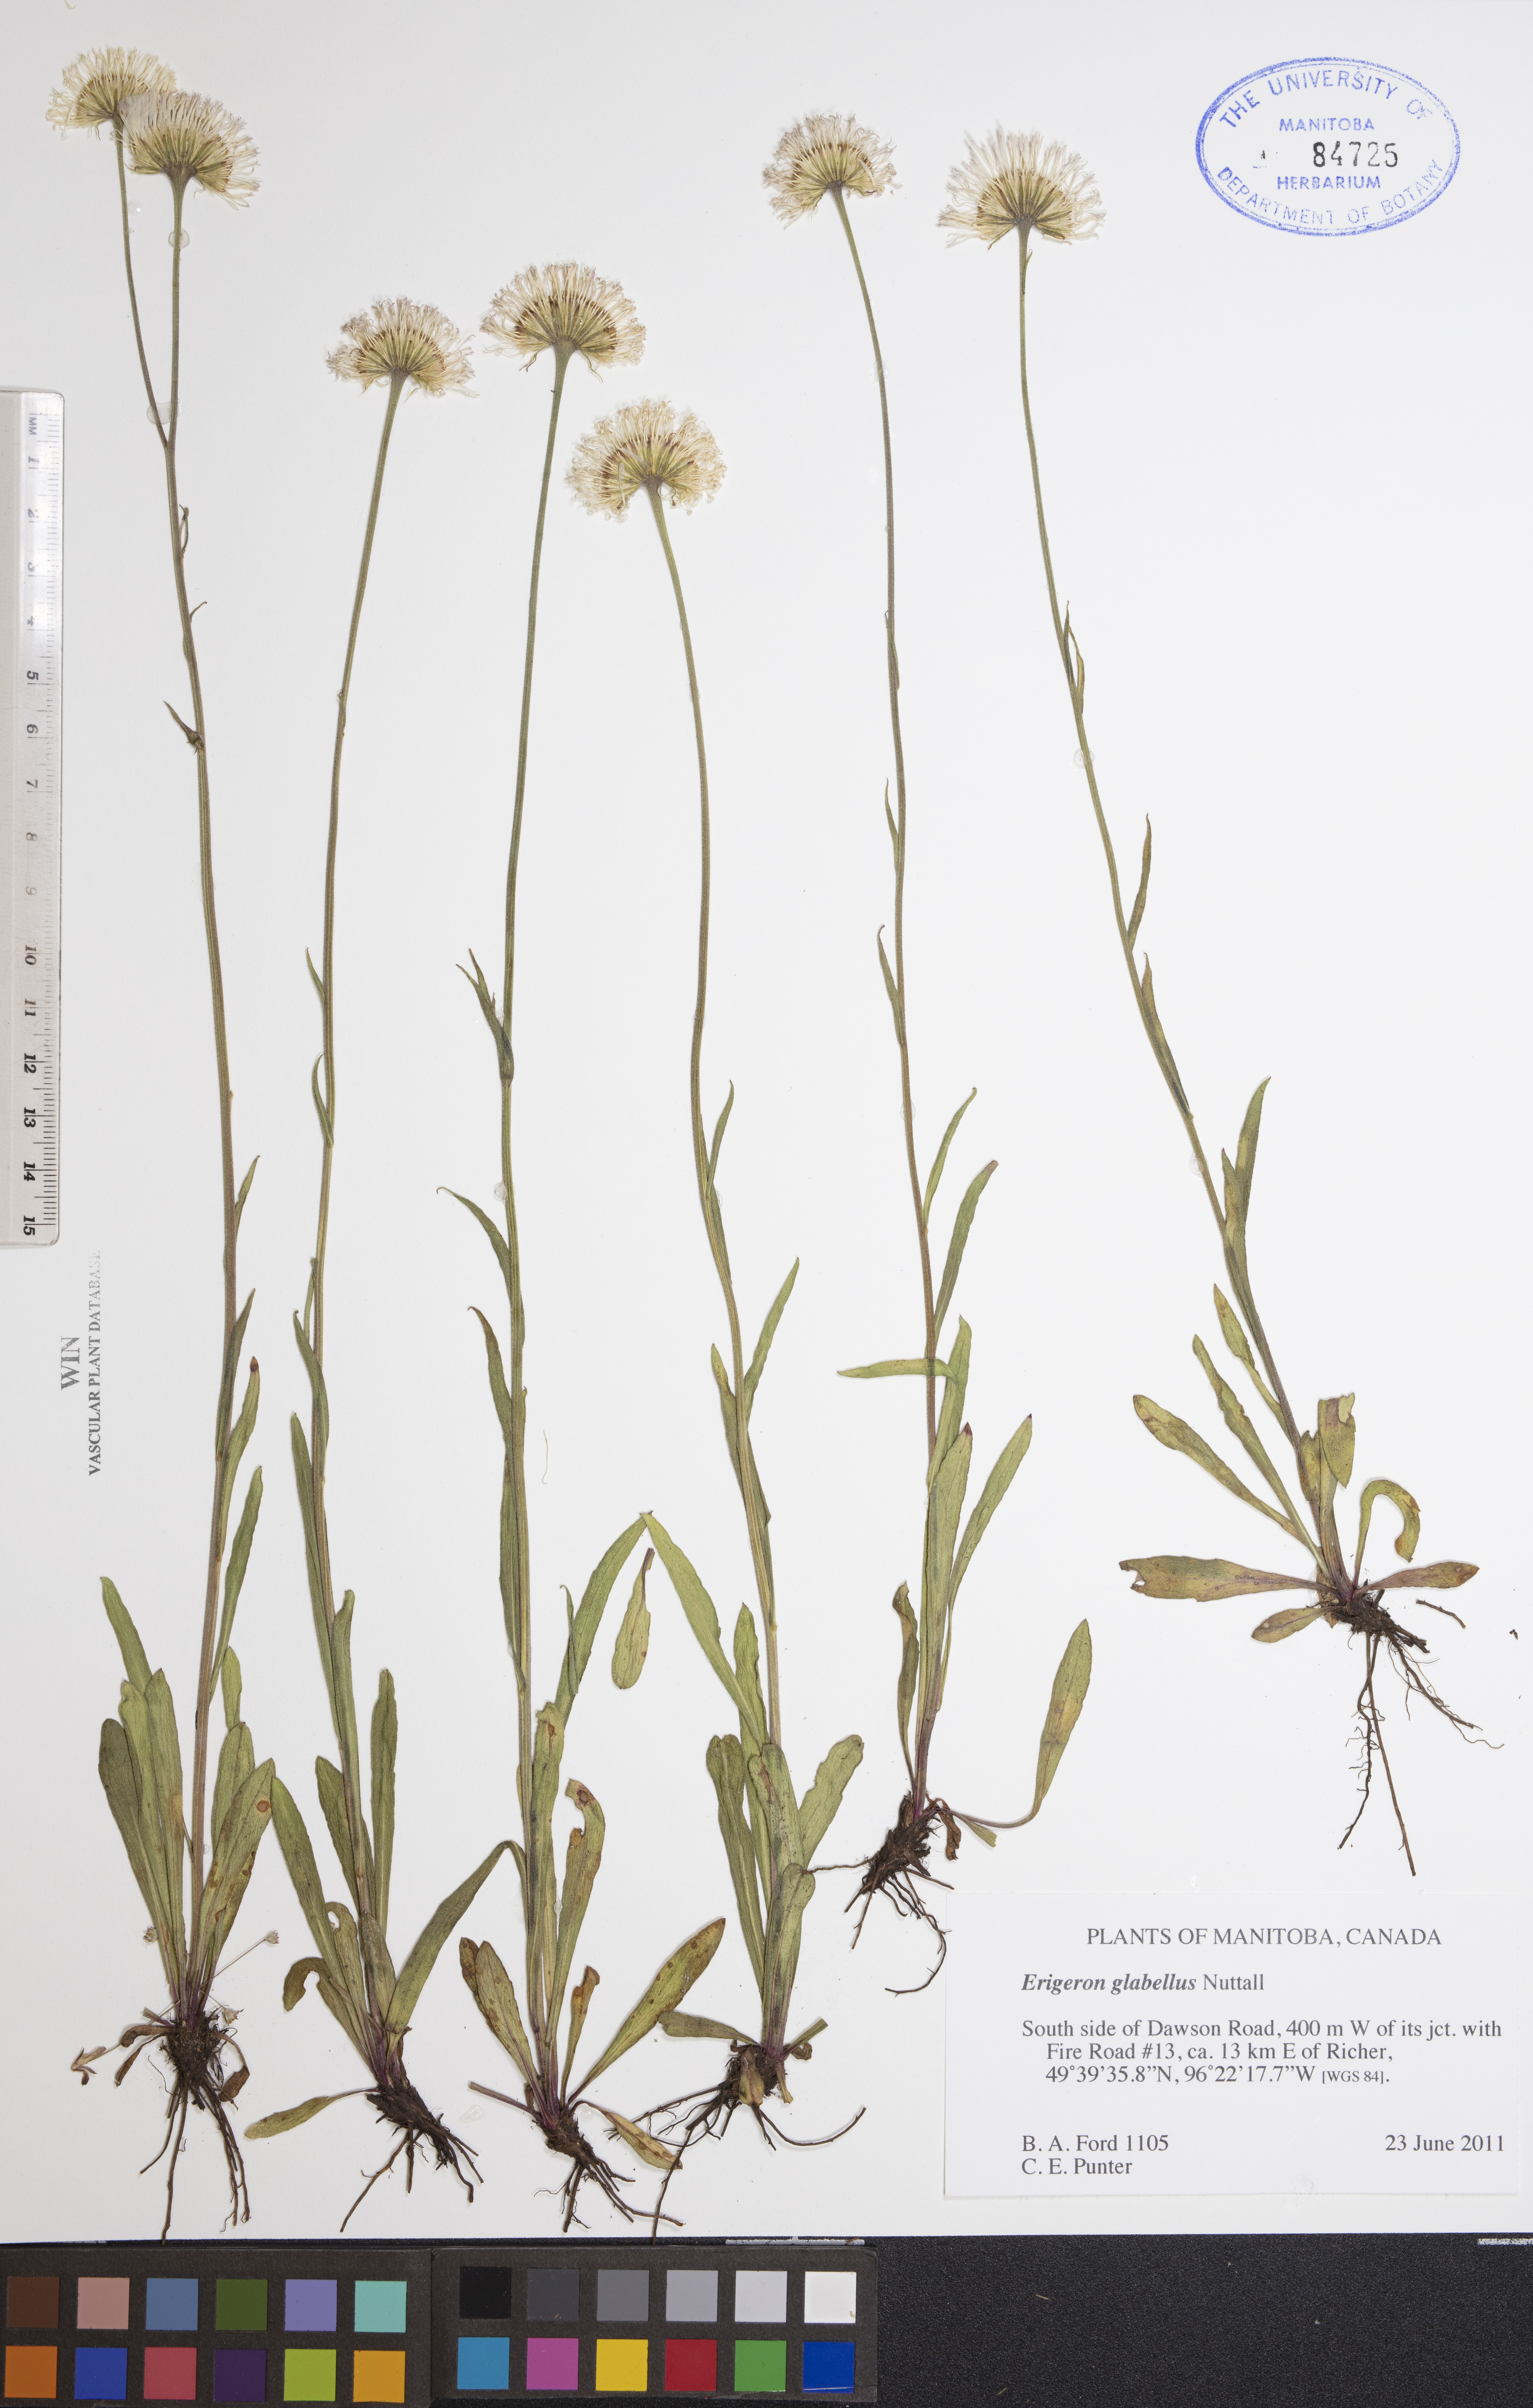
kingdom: Plantae
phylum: Tracheophyta
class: Magnoliopsida
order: Asterales
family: Asteraceae
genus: Erigeron
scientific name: Erigeron glabellus
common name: Smooth fleabane
